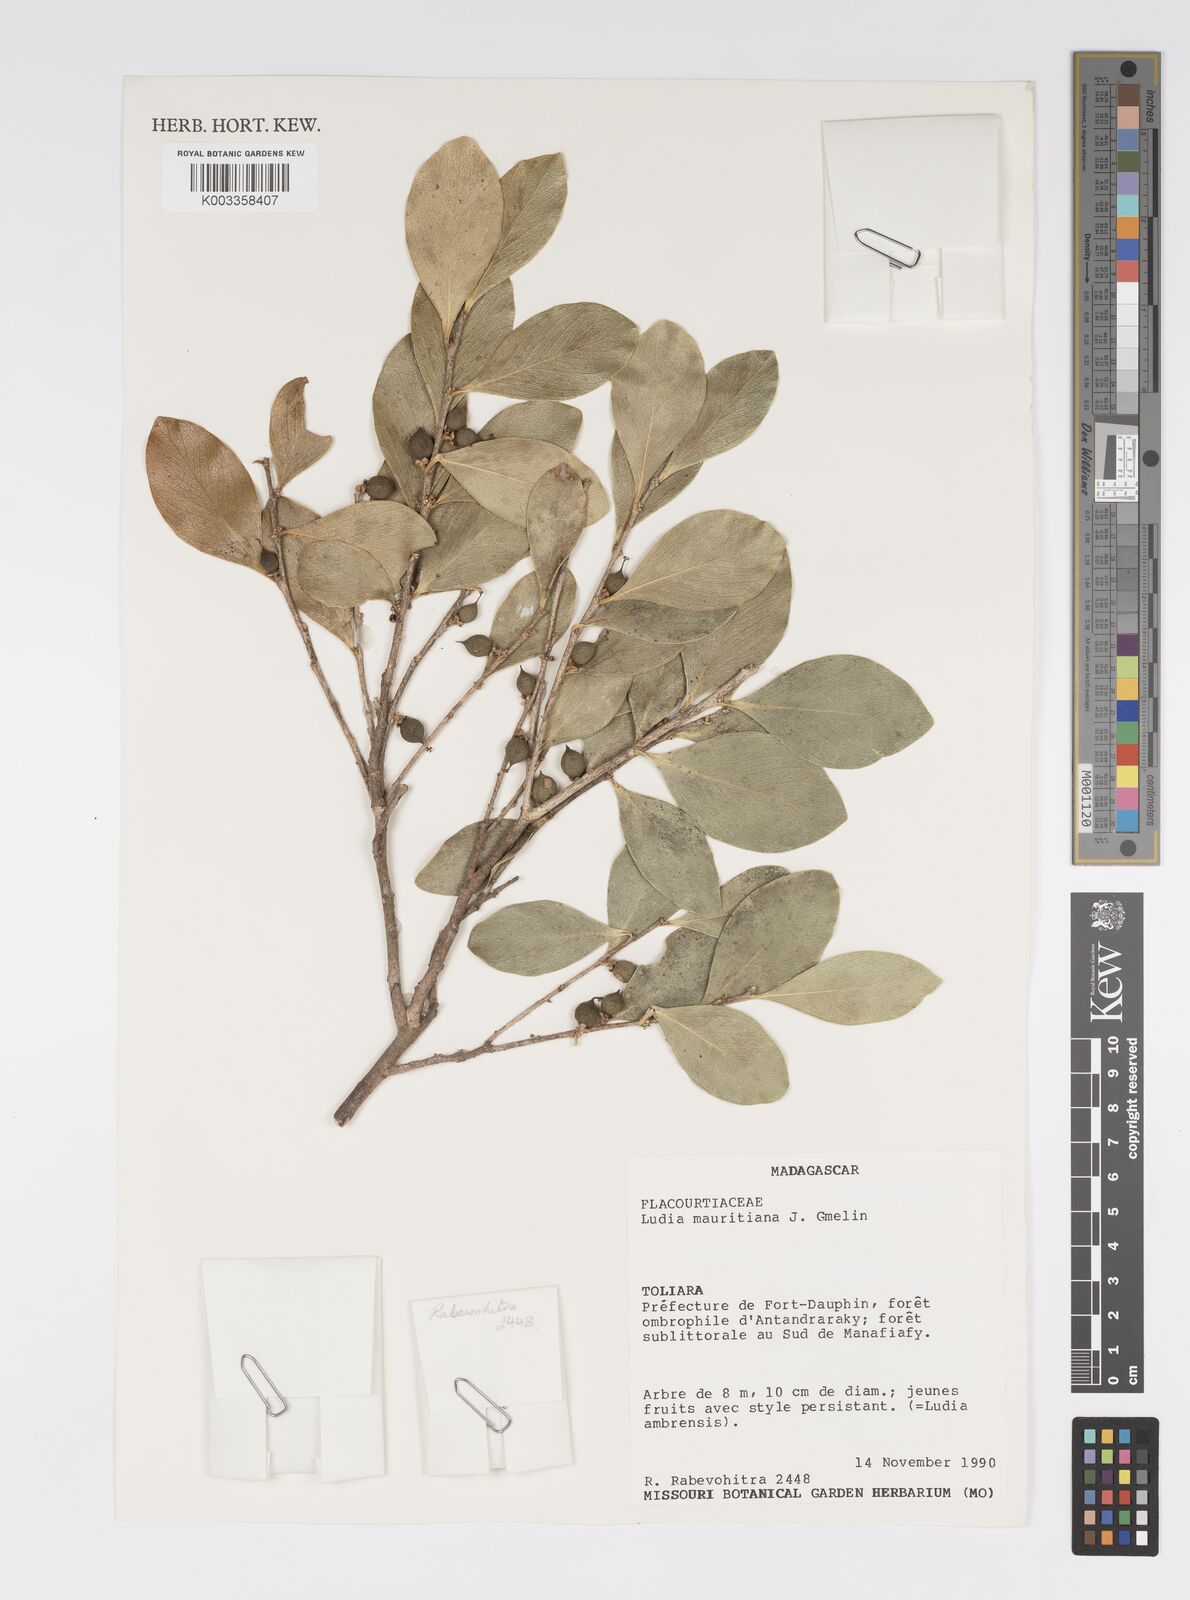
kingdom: Plantae
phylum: Tracheophyta
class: Magnoliopsida
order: Malpighiales
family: Salicaceae
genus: Ludia
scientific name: Ludia mauritiana
